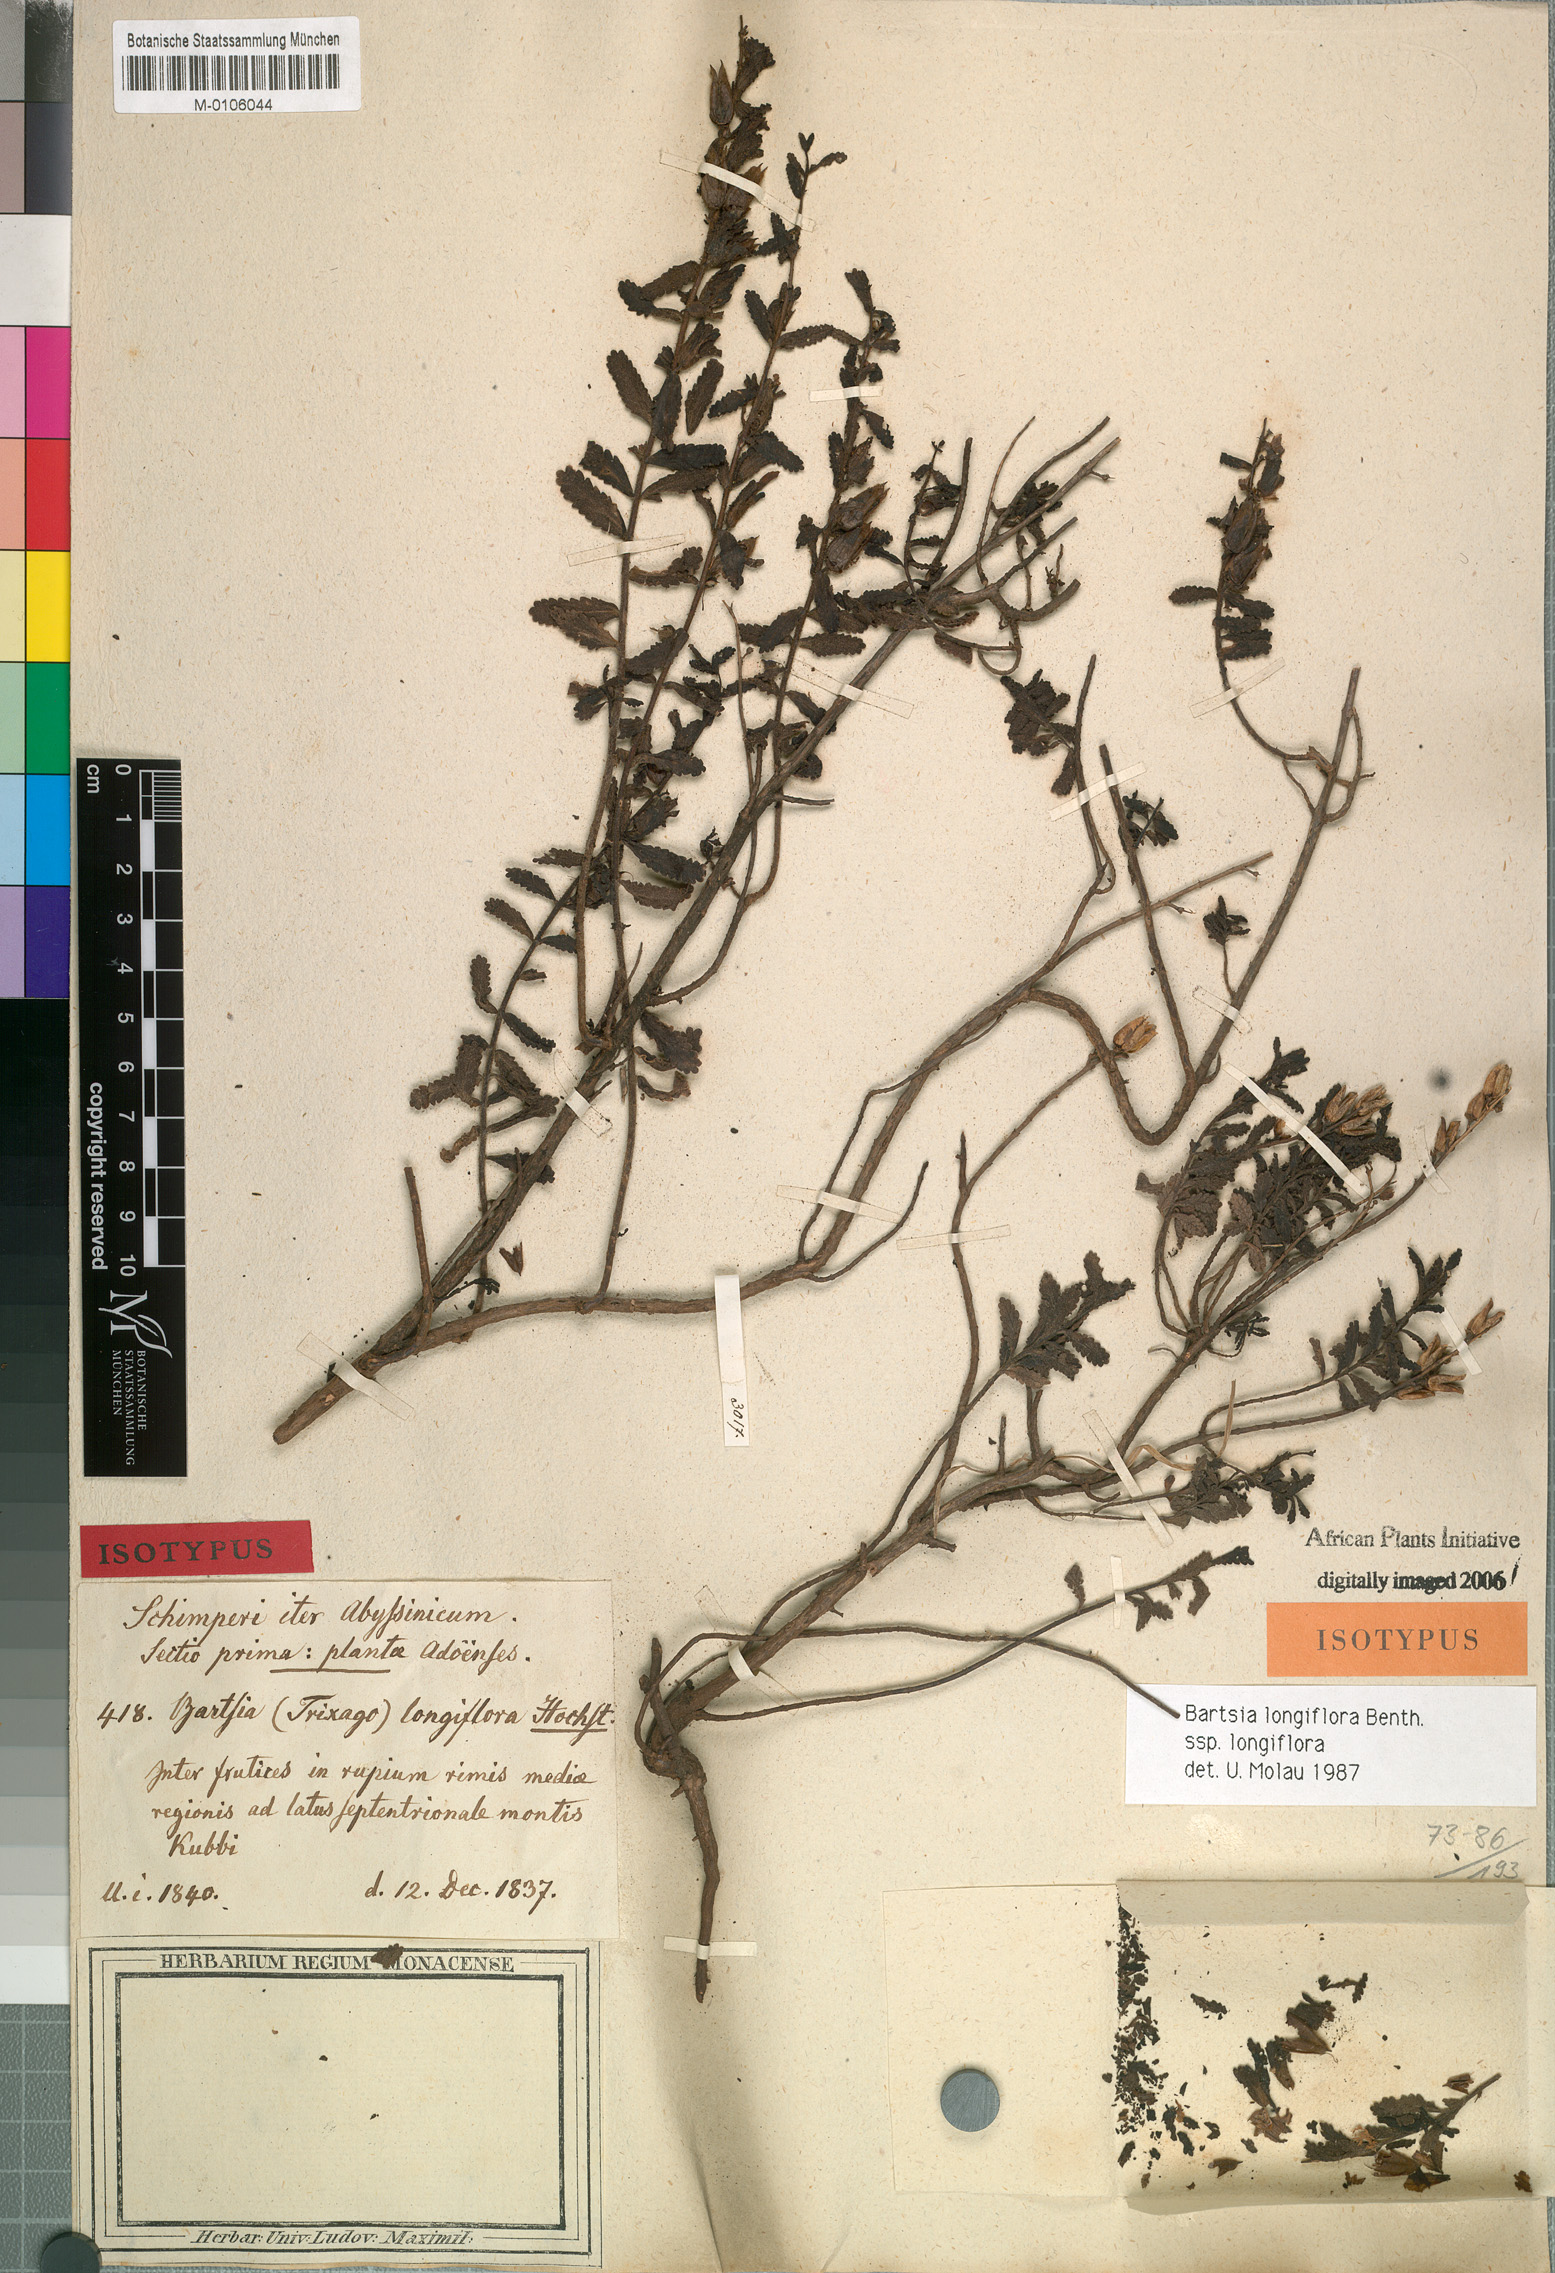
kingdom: Plantae
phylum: Tracheophyta
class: Magnoliopsida
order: Lamiales
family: Orobanchaceae
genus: Hedbergia
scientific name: Hedbergia longiflora
